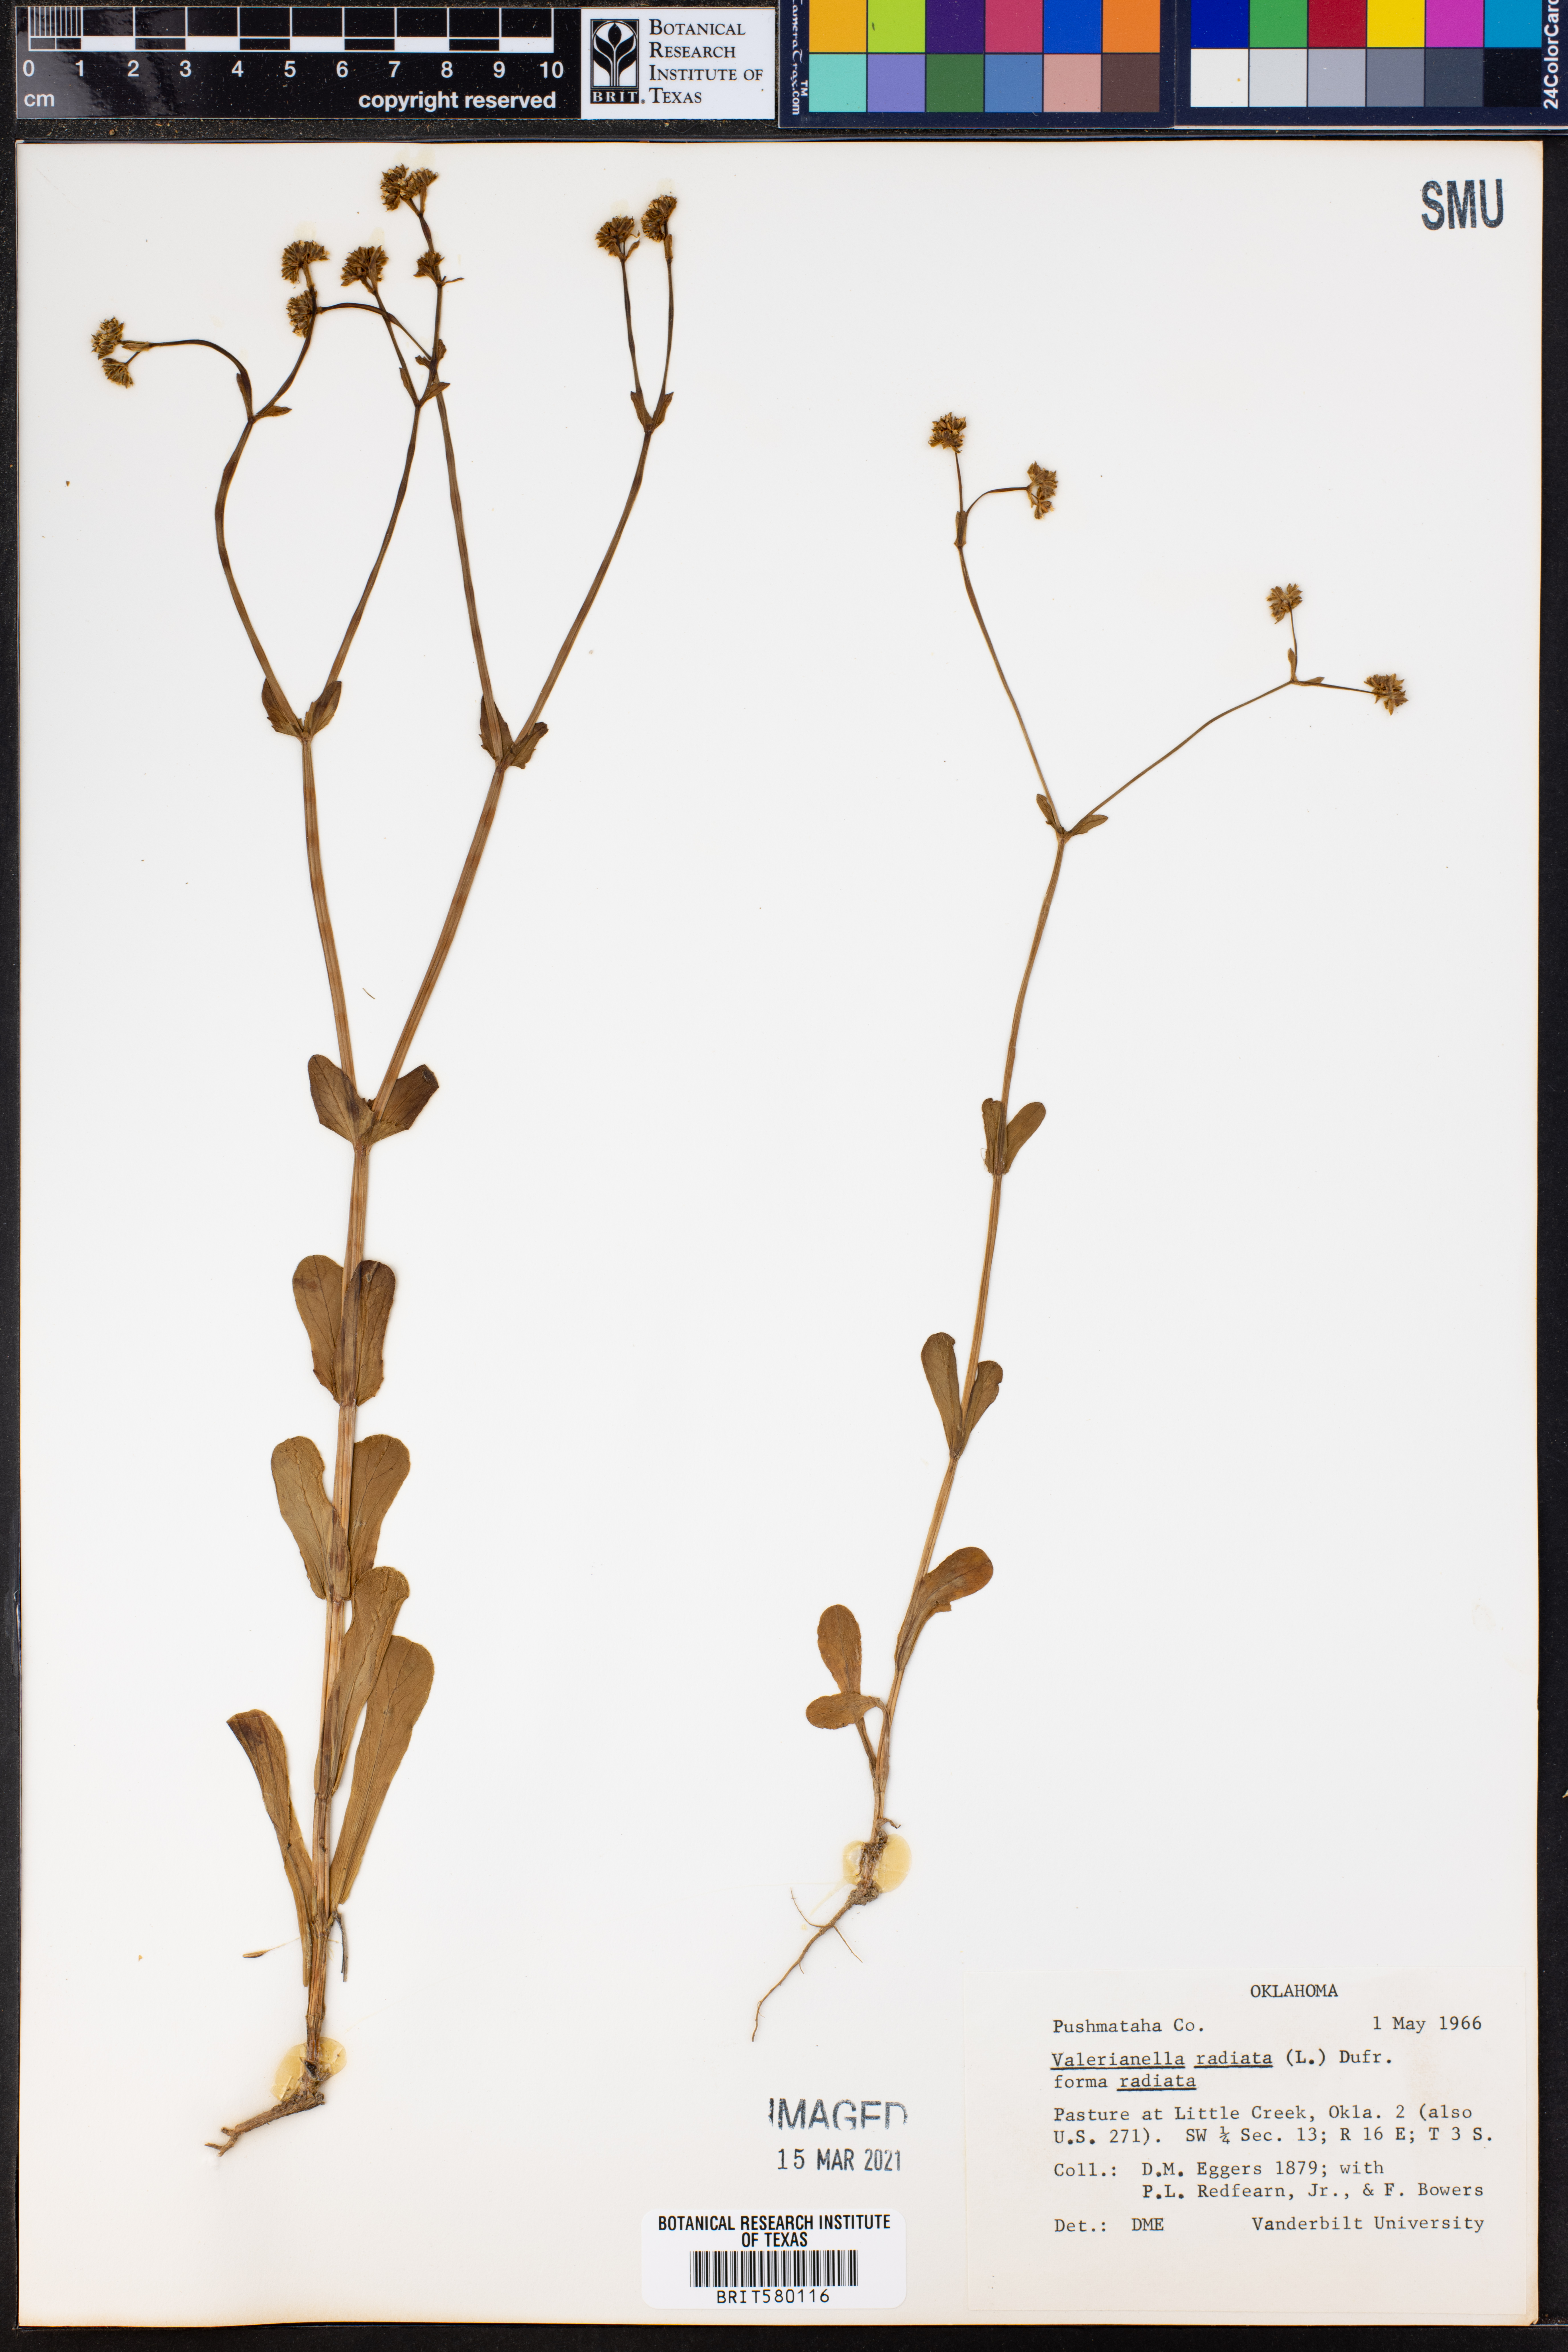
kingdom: Plantae
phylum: Tracheophyta
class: Magnoliopsida
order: Dipsacales
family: Caprifoliaceae
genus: Valerianella
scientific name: Valerianella radiata
